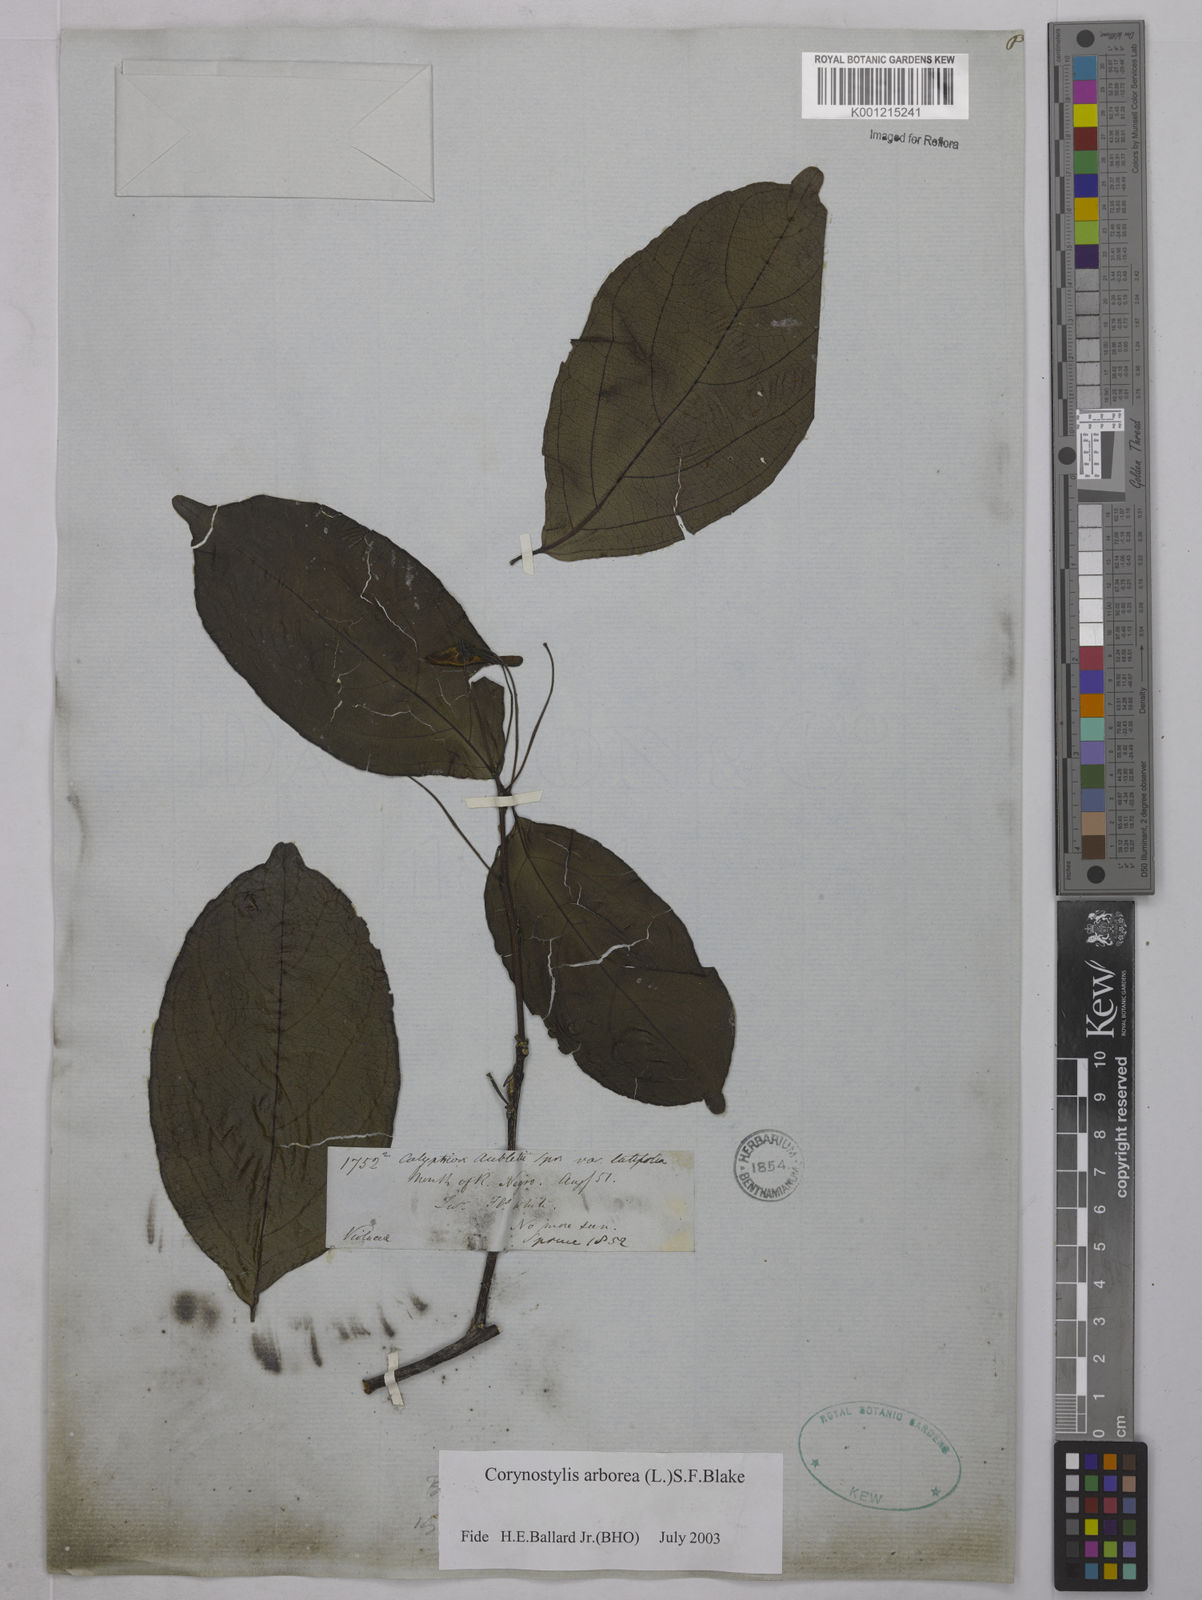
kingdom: Plantae
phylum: Tracheophyta
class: Magnoliopsida
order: Malpighiales
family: Violaceae
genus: Calyptrion
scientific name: Calyptrion arboreum
